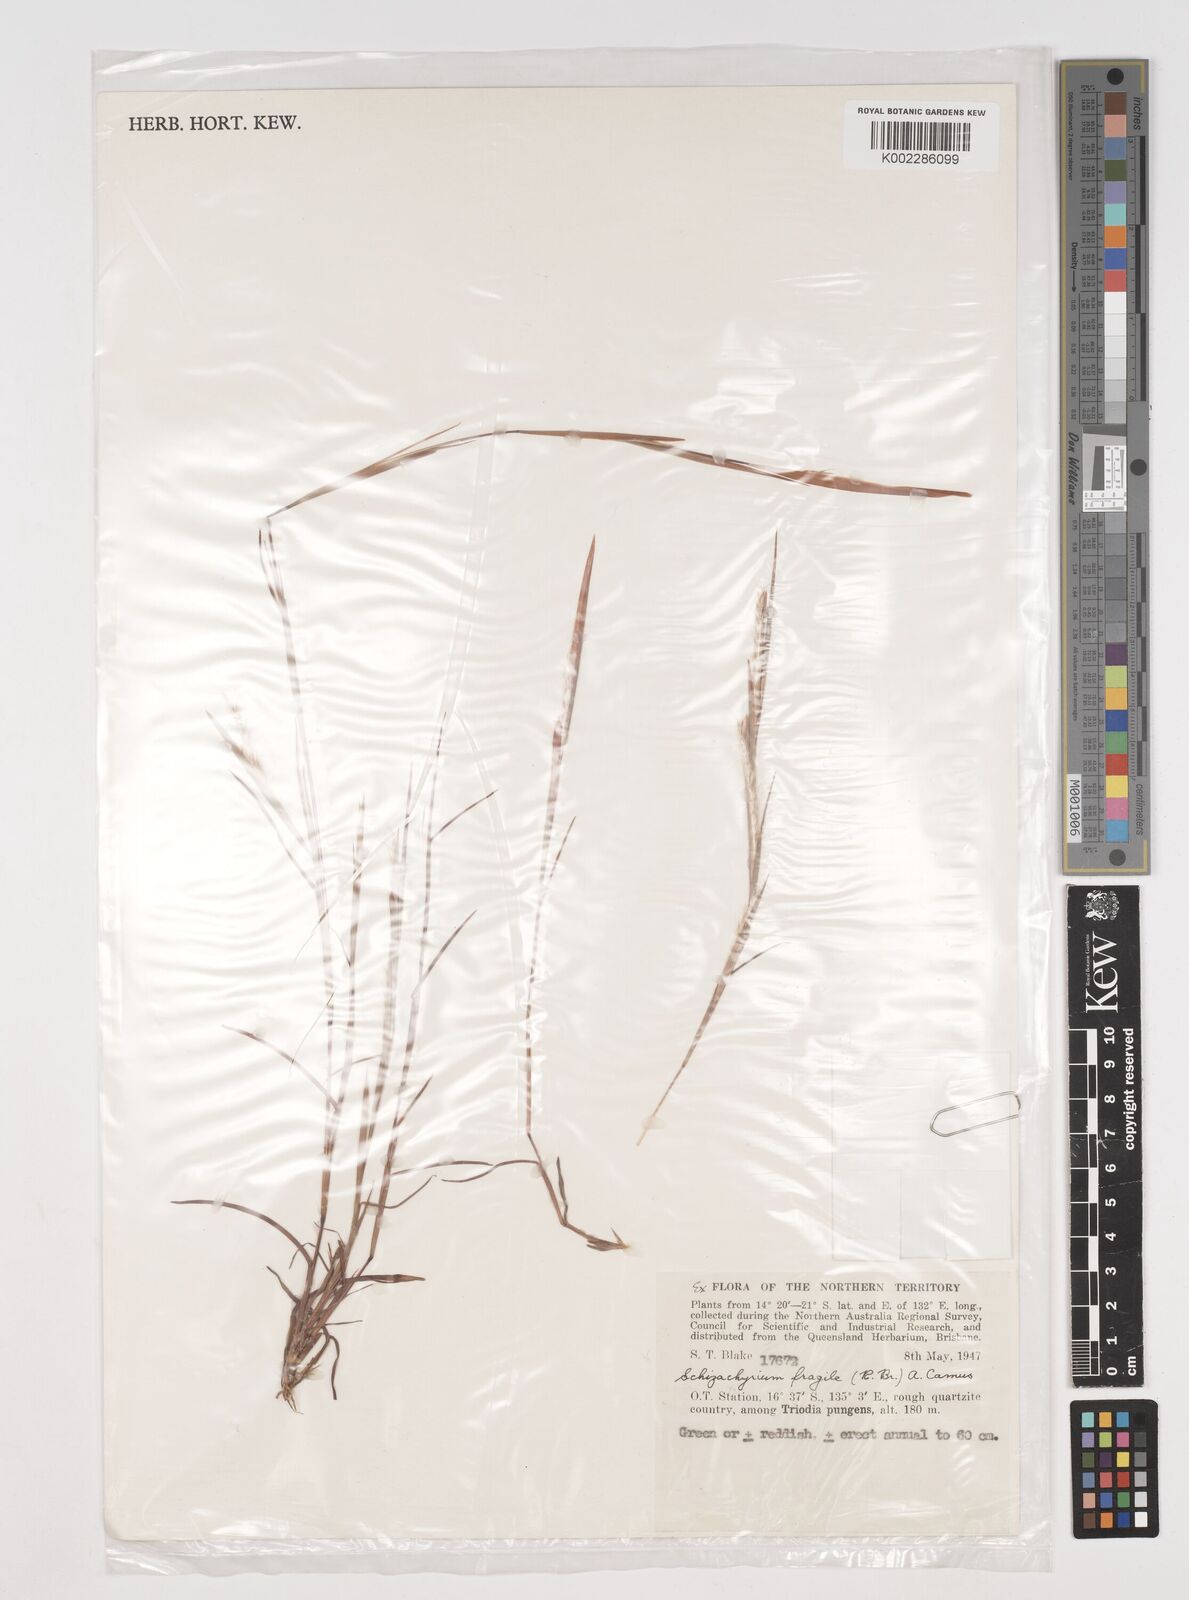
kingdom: Plantae
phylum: Tracheophyta
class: Liliopsida
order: Poales
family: Poaceae
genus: Schizachyrium
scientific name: Schizachyrium fragile
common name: Red spathe grass
